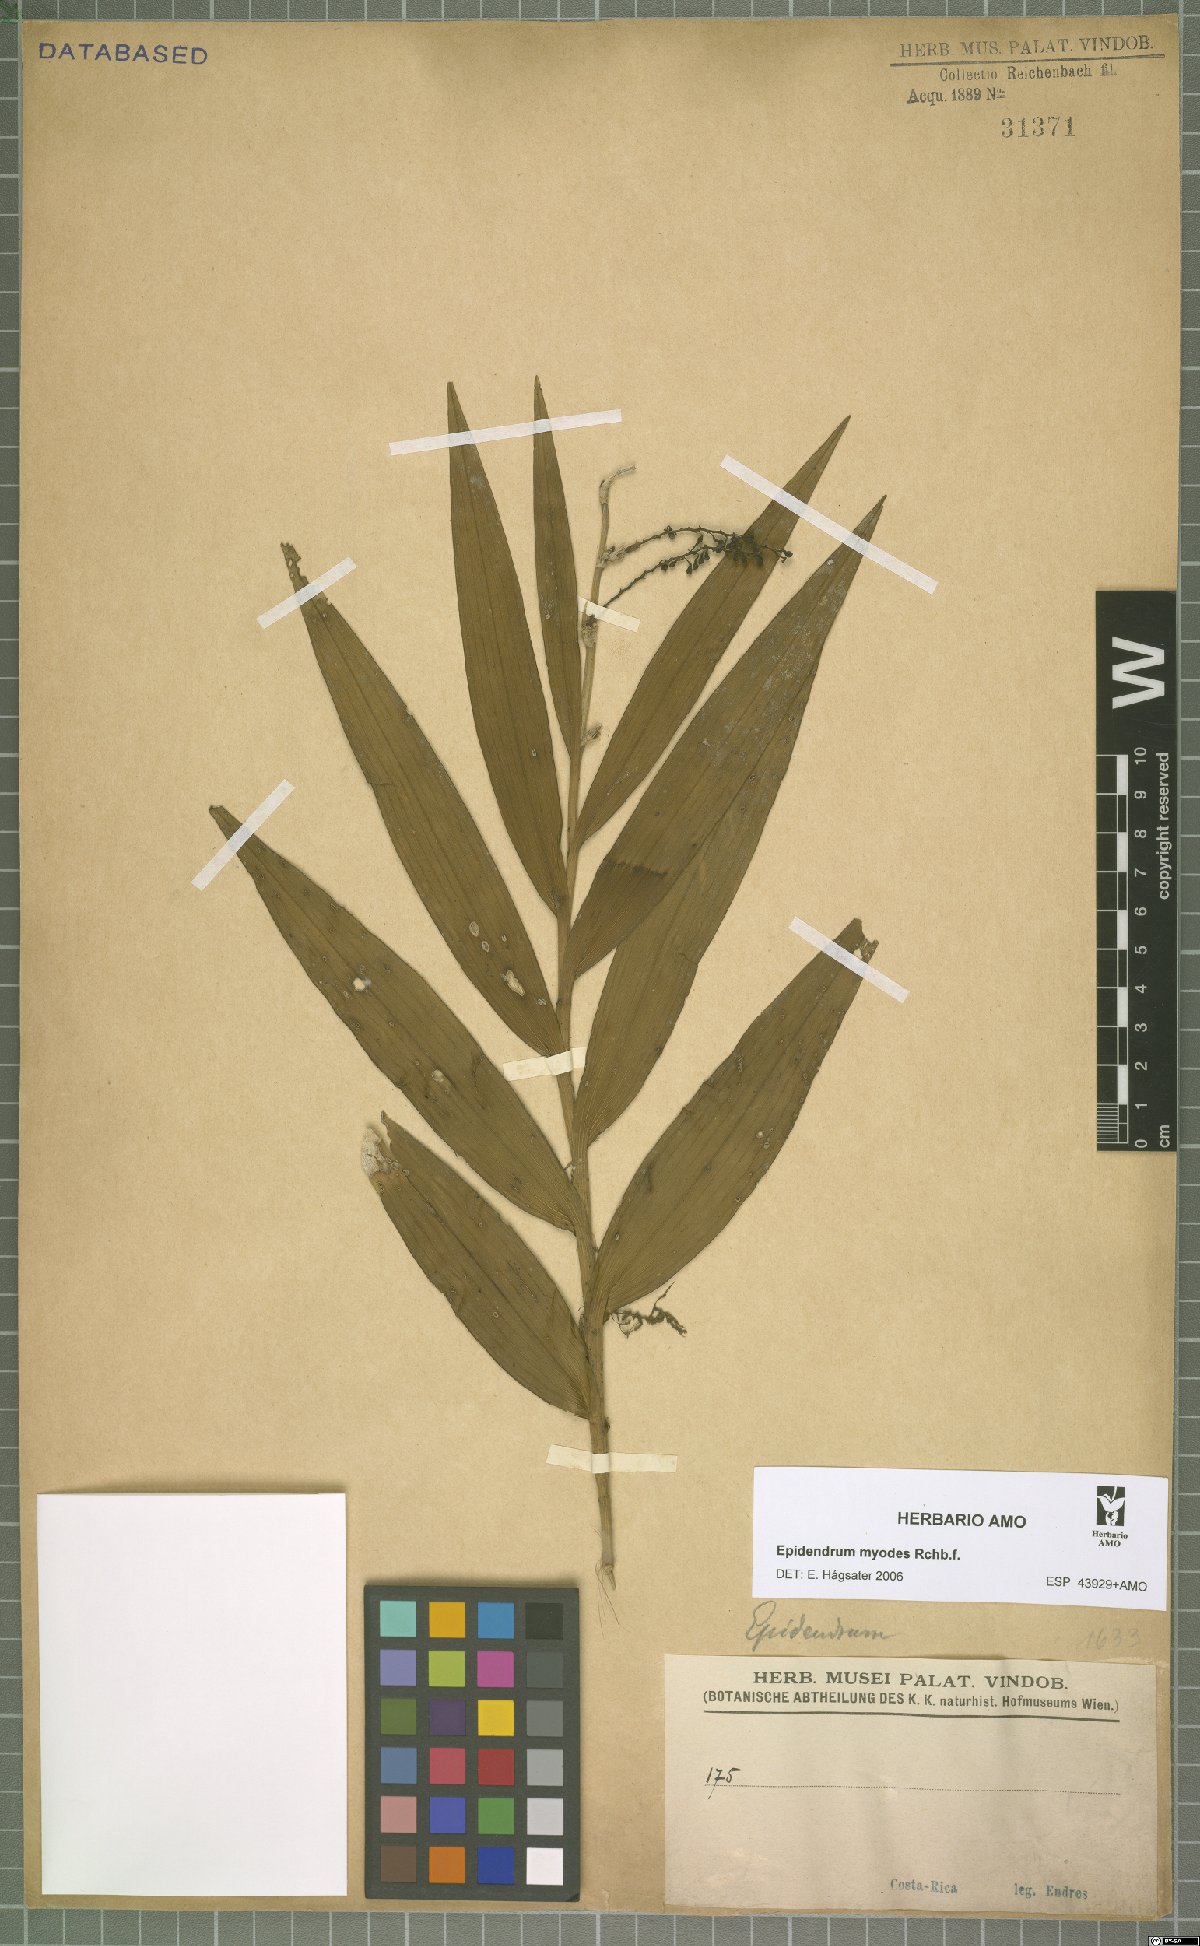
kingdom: Plantae
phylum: Tracheophyta
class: Liliopsida
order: Asparagales
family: Orchidaceae
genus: Epidendrum
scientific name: Epidendrum myodes
